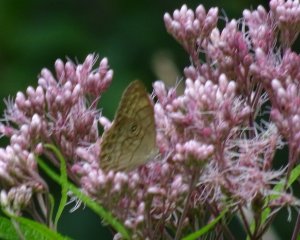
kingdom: Animalia
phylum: Arthropoda
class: Insecta
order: Lepidoptera
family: Nymphalidae
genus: Lethe
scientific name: Lethe eurydice
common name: Appalachian Eyed Brown
